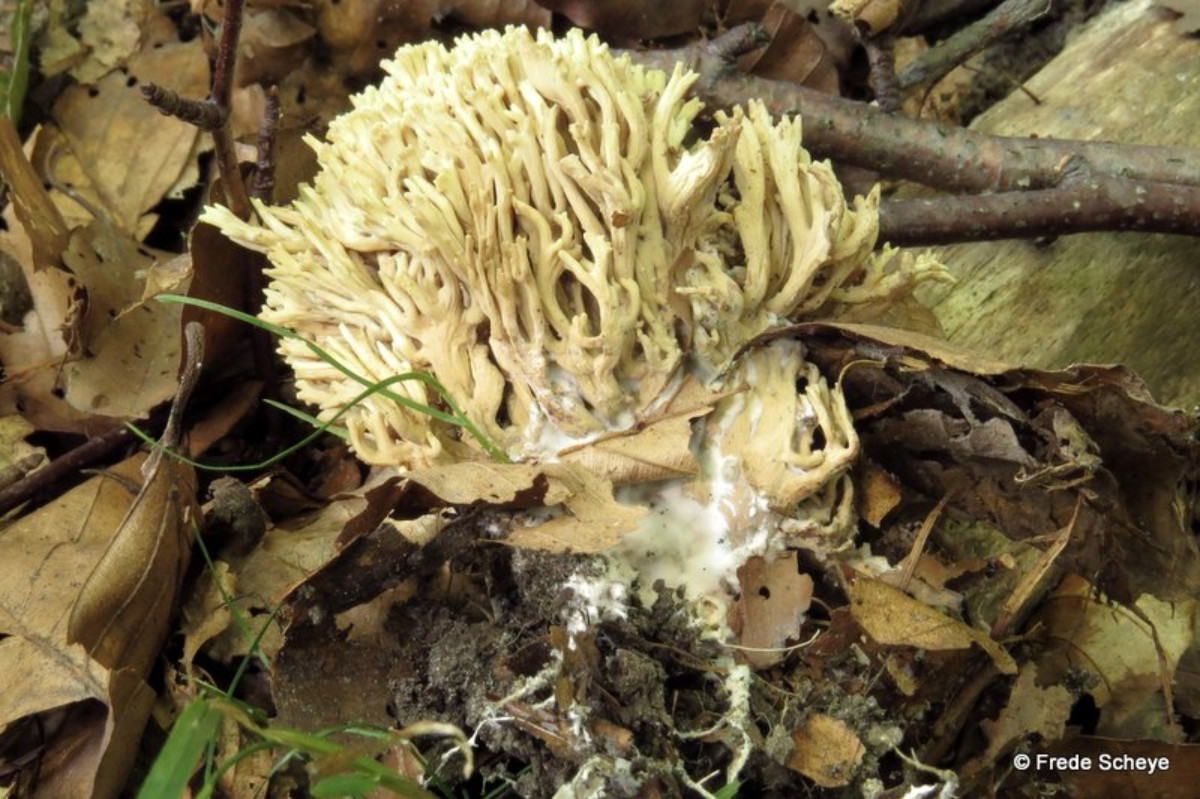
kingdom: Fungi
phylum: Basidiomycota
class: Agaricomycetes
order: Gomphales
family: Gomphaceae
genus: Ramaria
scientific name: Ramaria stricta
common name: rank koralsvamp
